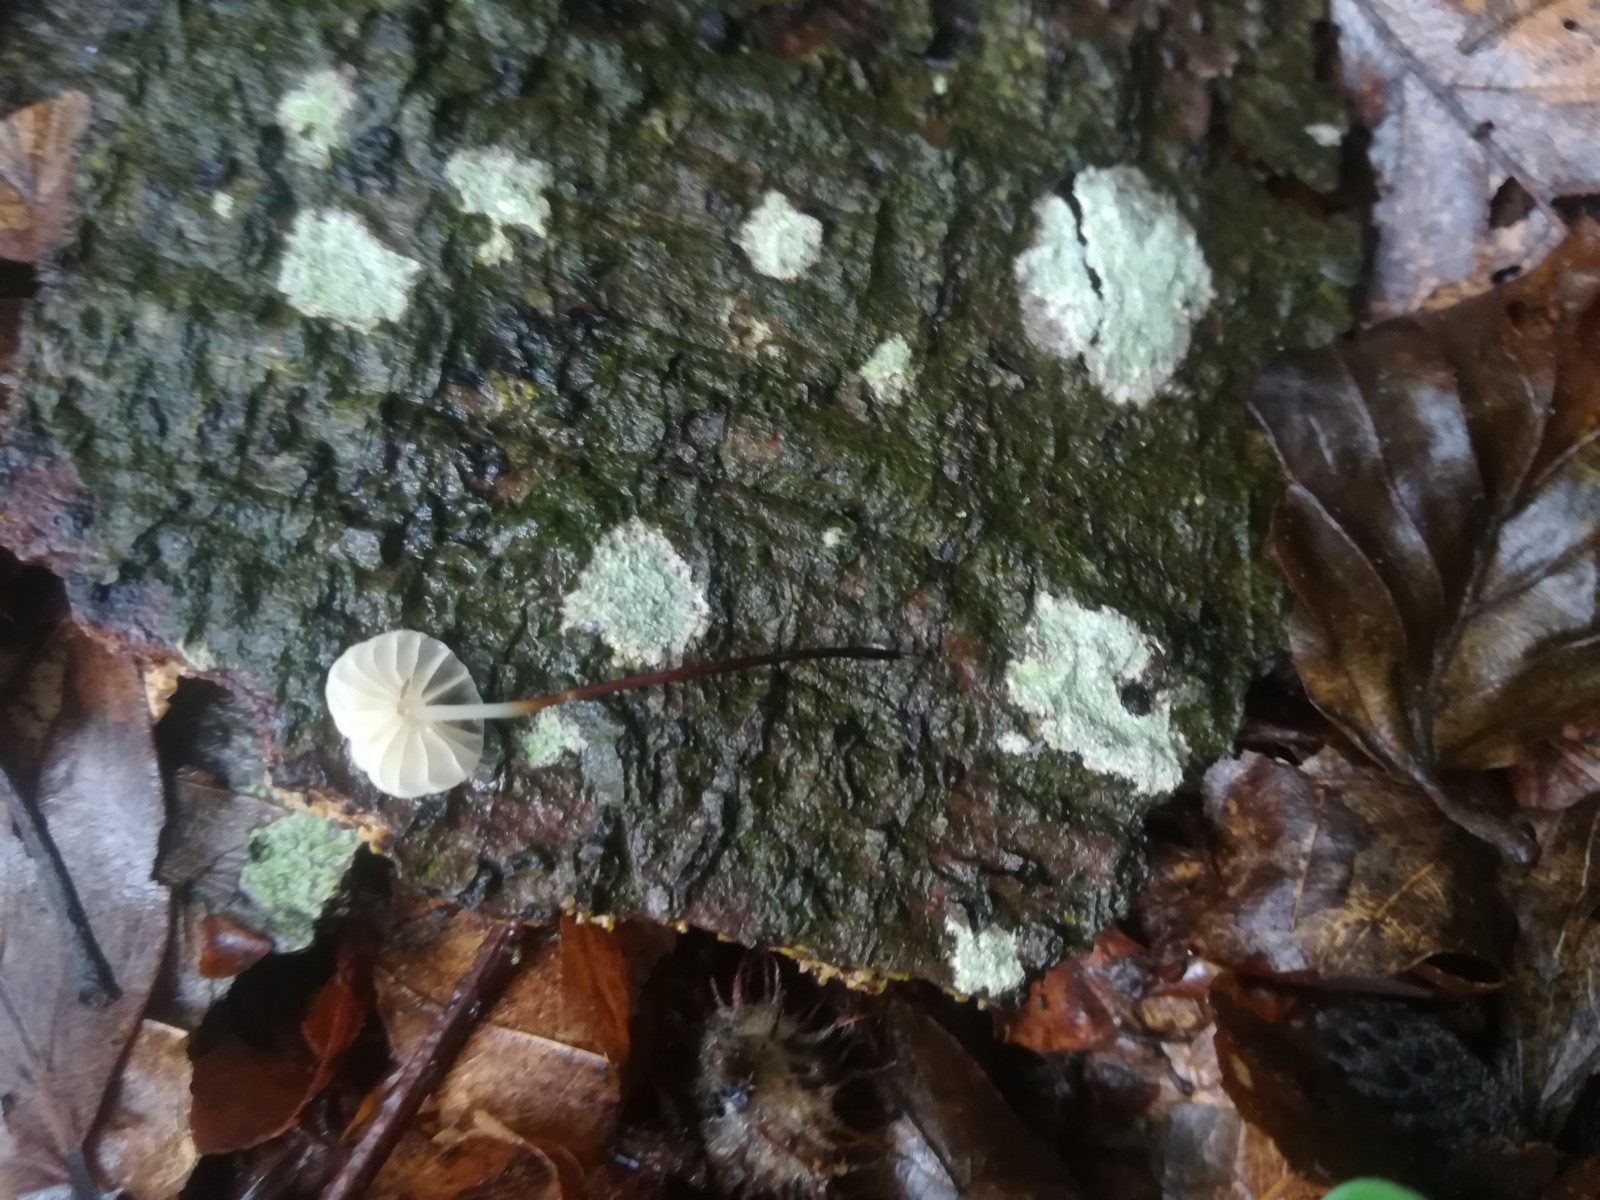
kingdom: Fungi
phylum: Basidiomycota
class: Agaricomycetes
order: Agaricales
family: Marasmiaceae
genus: Marasmius
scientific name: Marasmius rotula
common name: hjul-bruskhat
